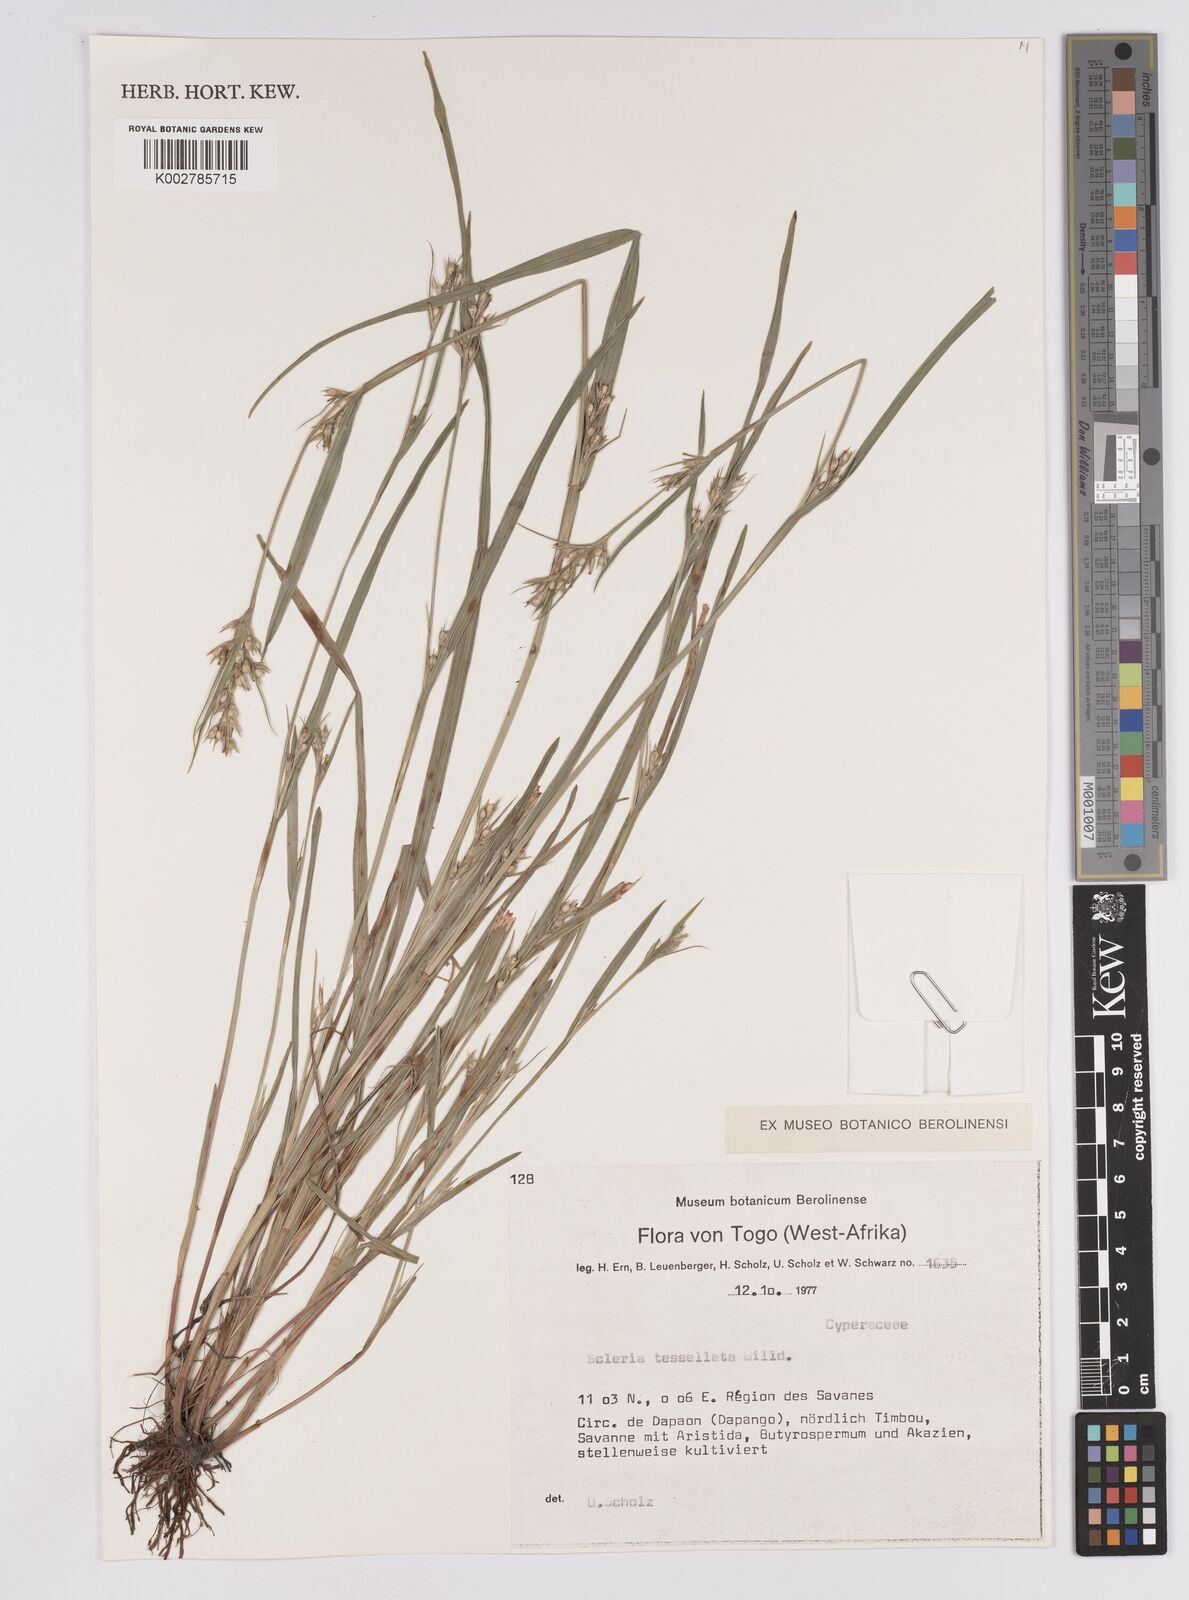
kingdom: Plantae
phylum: Tracheophyta
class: Liliopsida
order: Poales
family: Cyperaceae
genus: Scleria
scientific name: Scleria tessellata
